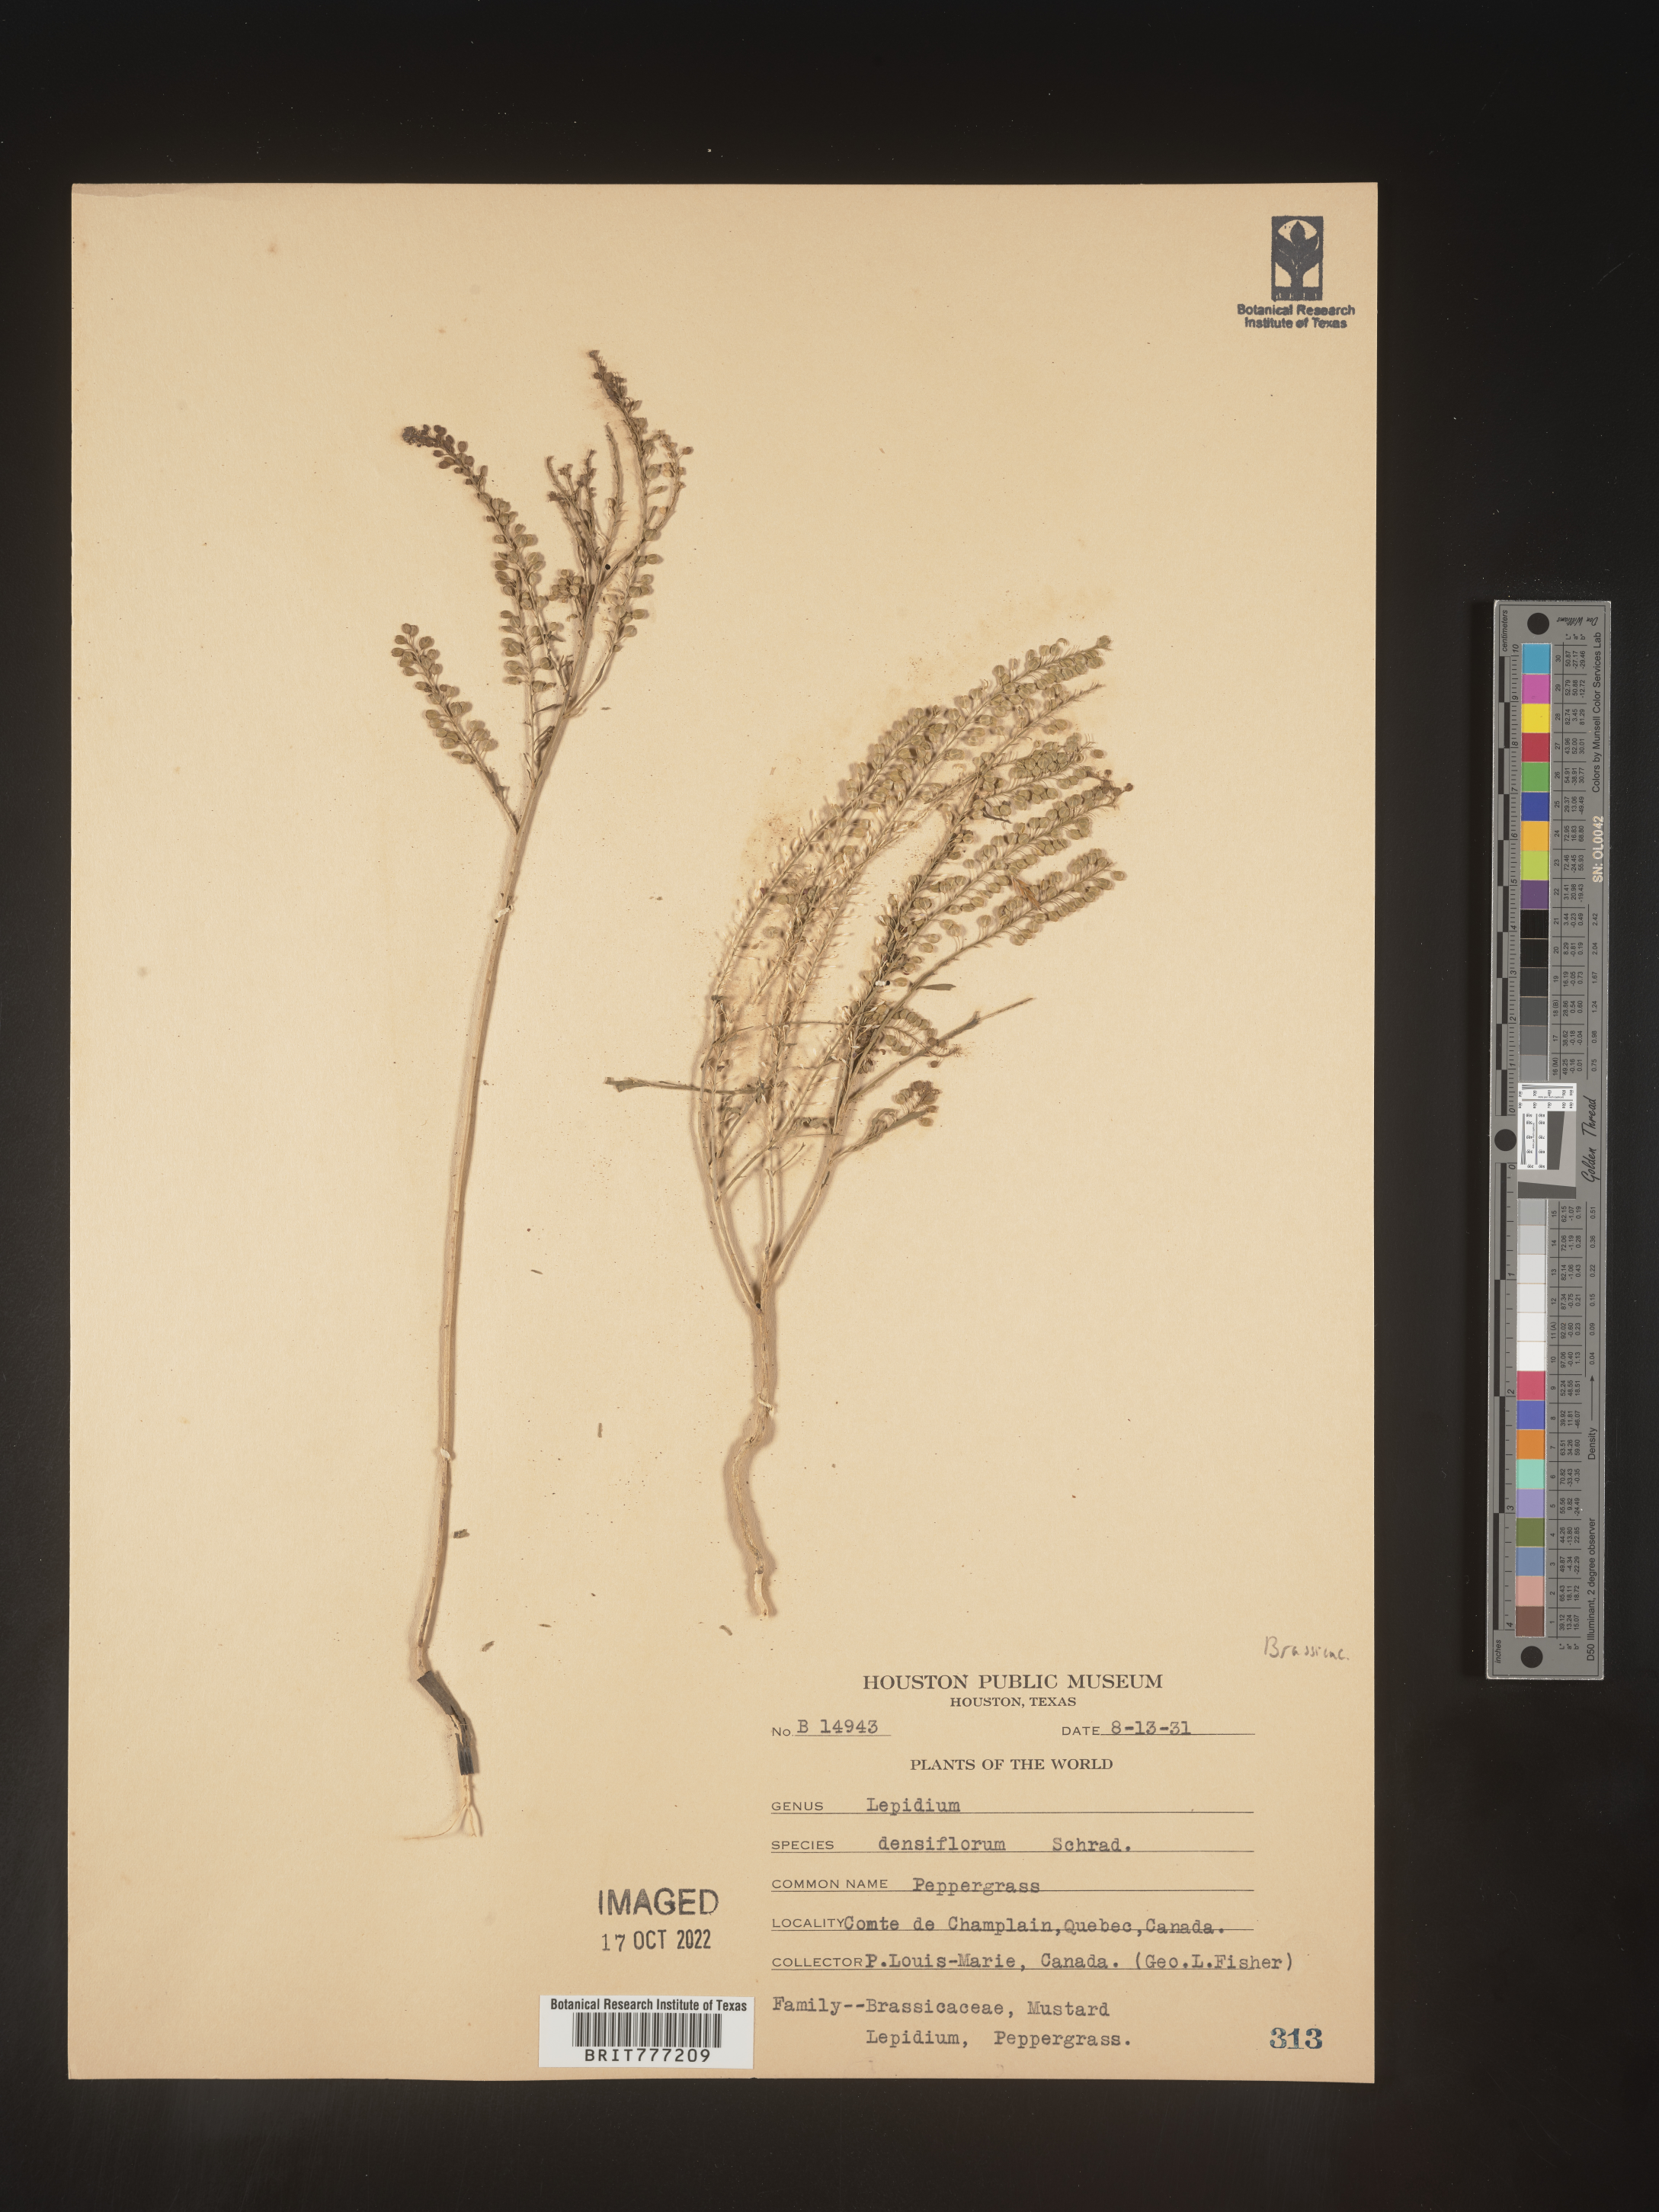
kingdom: Plantae
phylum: Tracheophyta
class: Magnoliopsida
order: Brassicales
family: Brassicaceae
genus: Lepidium
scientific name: Lepidium densiflorum
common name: Miner's pepperwort
